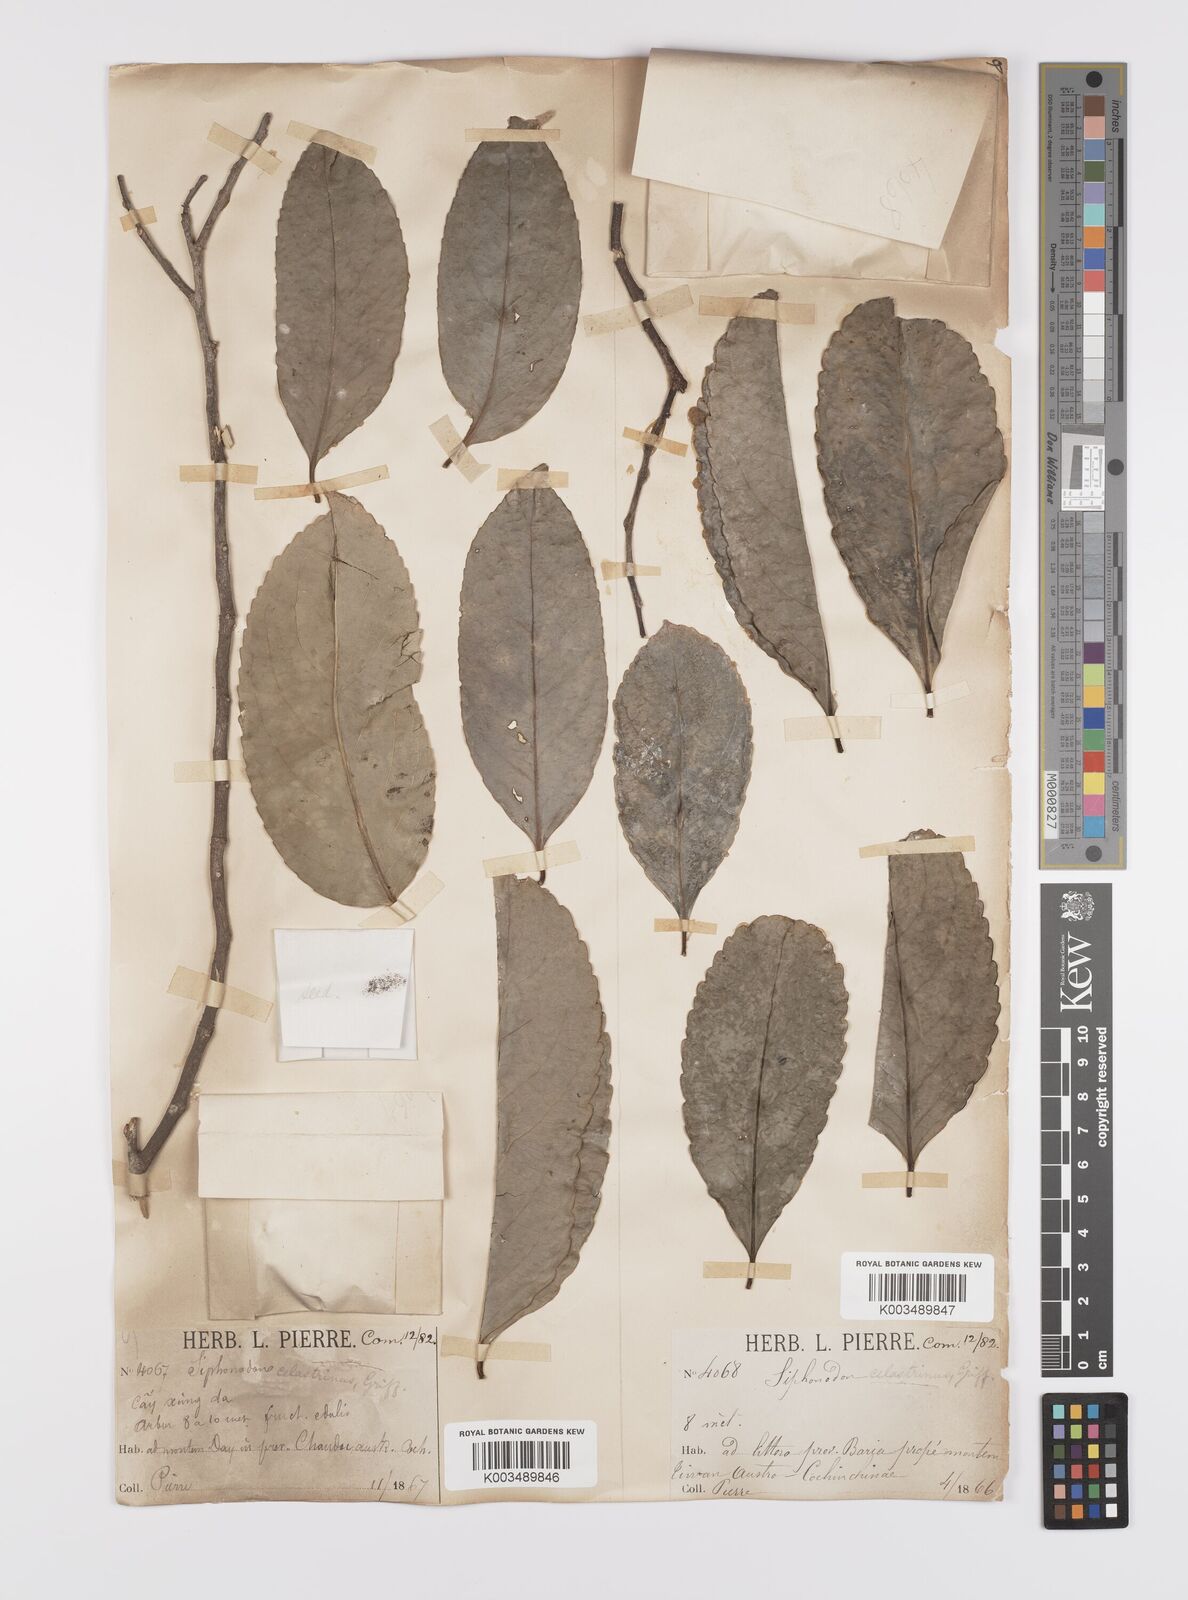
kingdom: Plantae
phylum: Tracheophyta
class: Magnoliopsida
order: Celastrales
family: Celastraceae
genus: Siphonodon
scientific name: Siphonodon celastrineus
